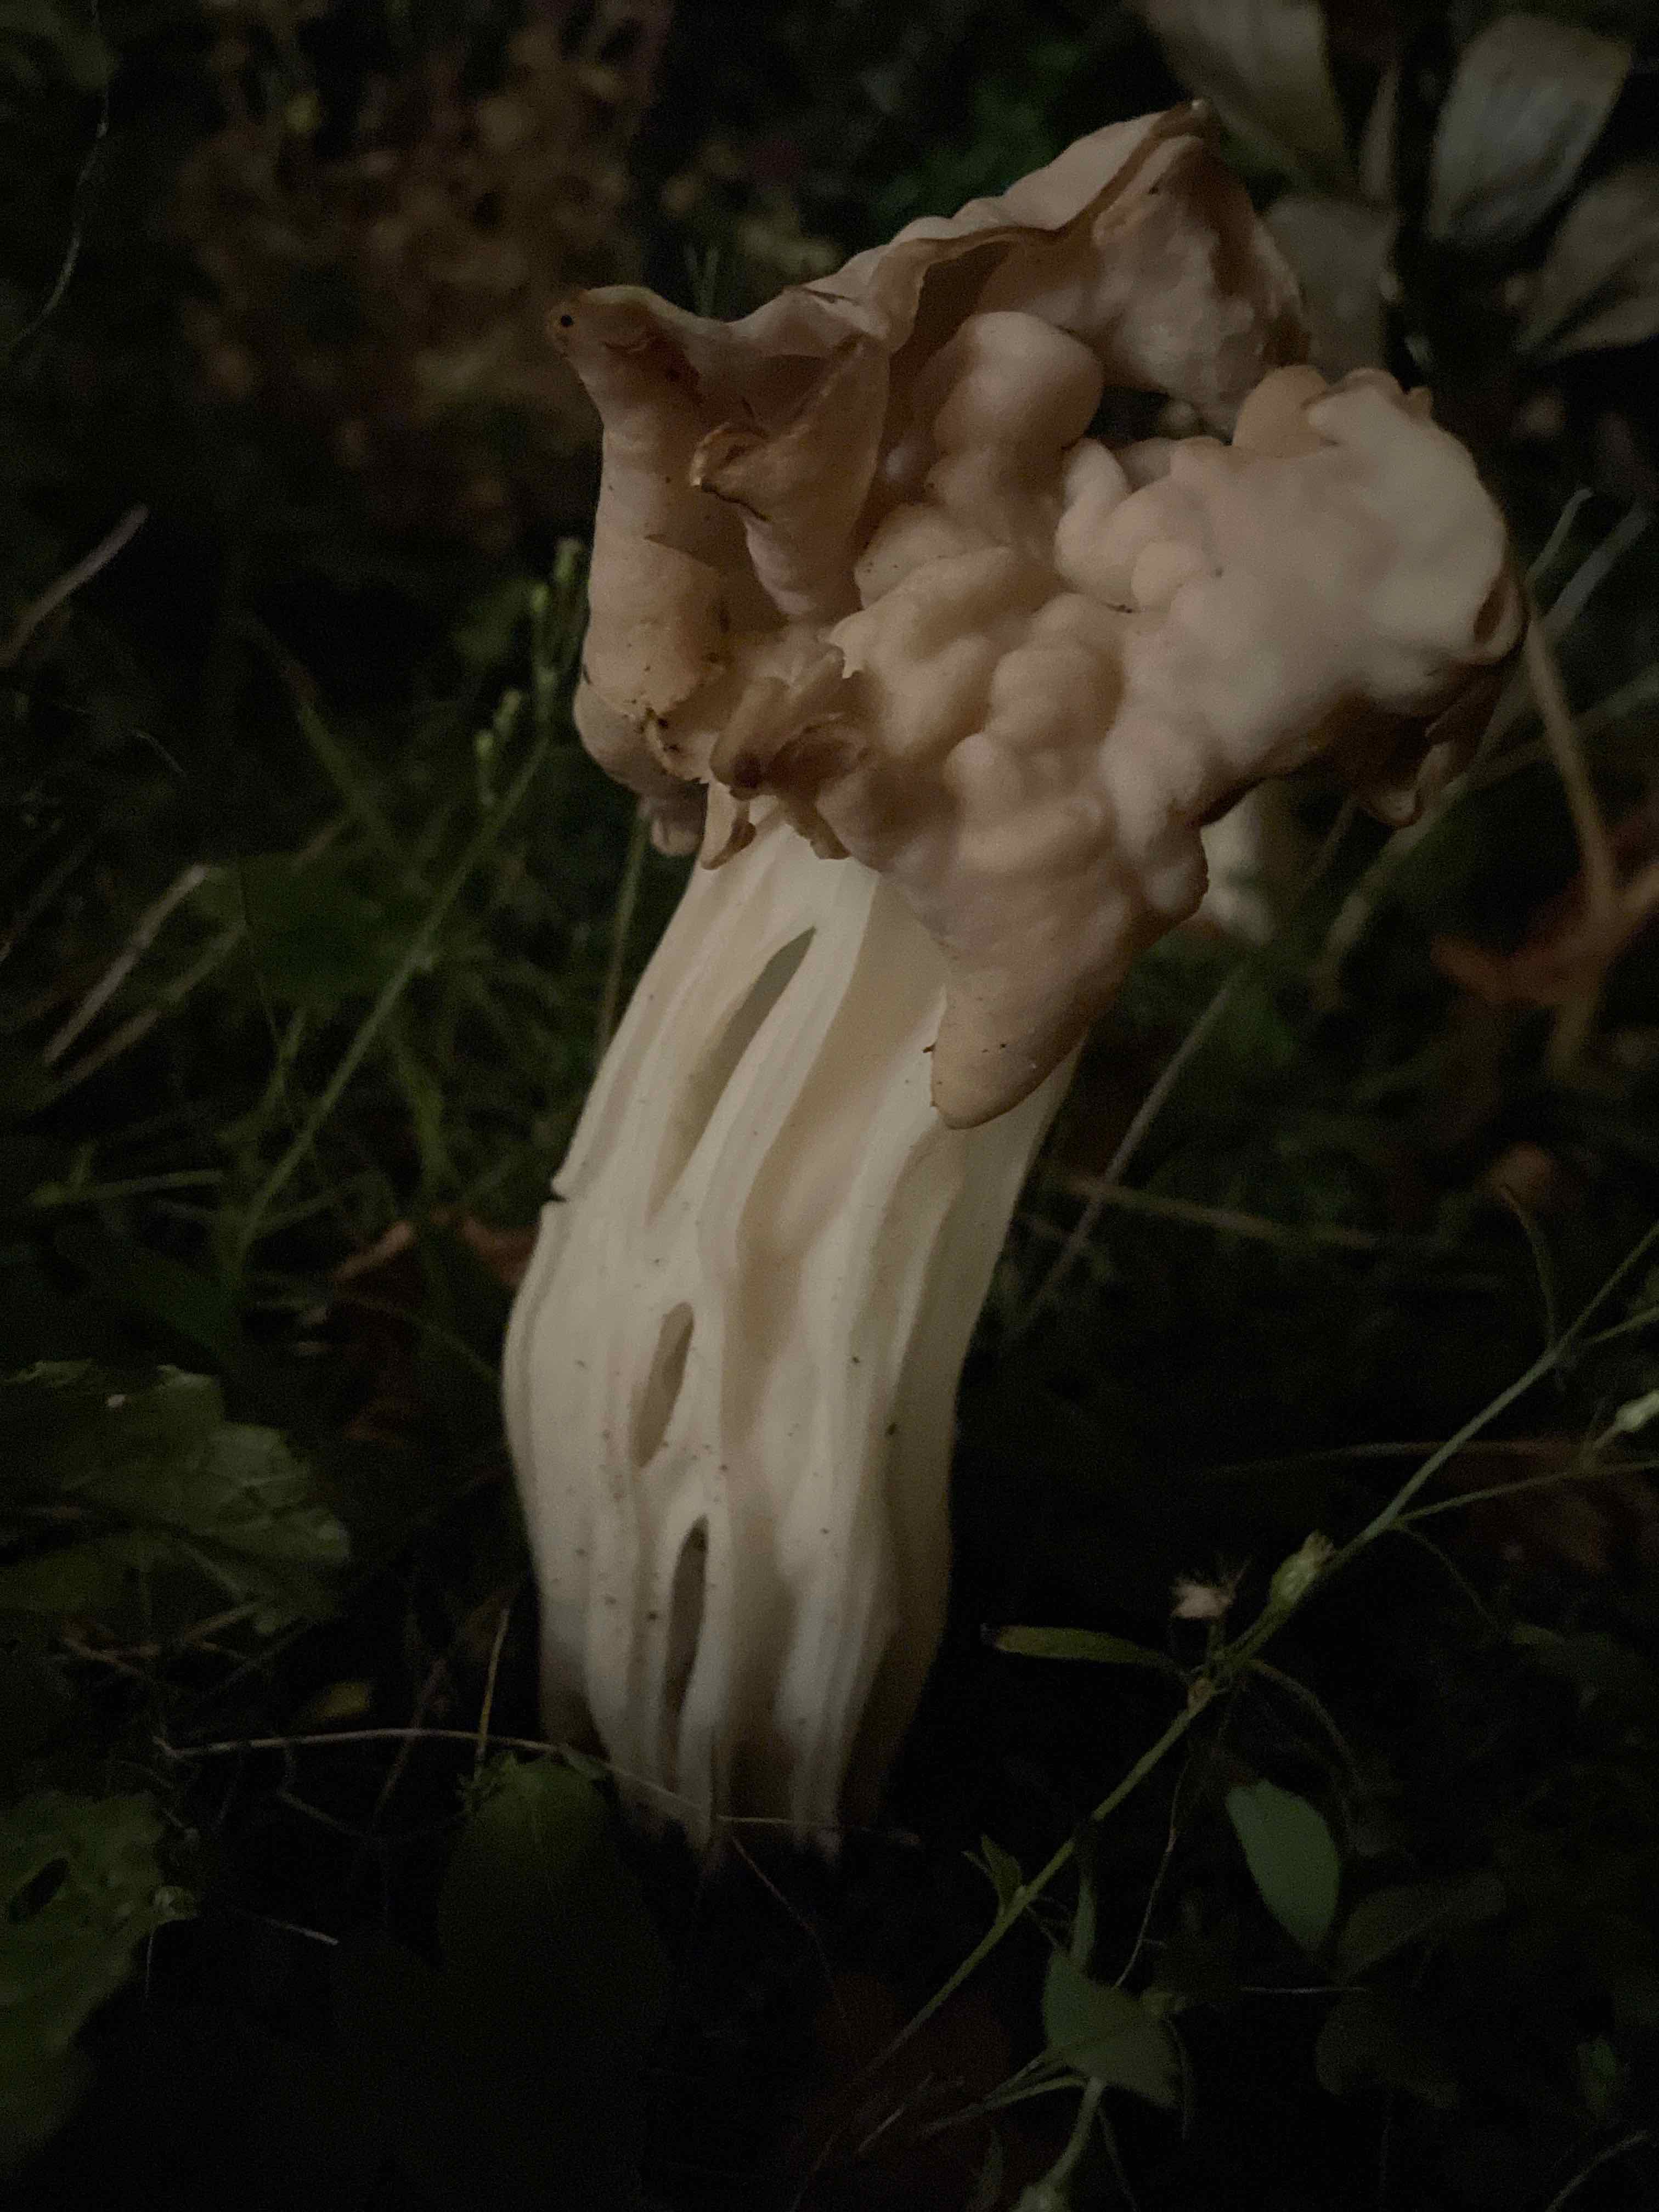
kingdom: Fungi
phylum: Ascomycota
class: Pezizomycetes
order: Pezizales
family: Helvellaceae
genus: Helvella
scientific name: Helvella crispa
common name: kruset foldhat
